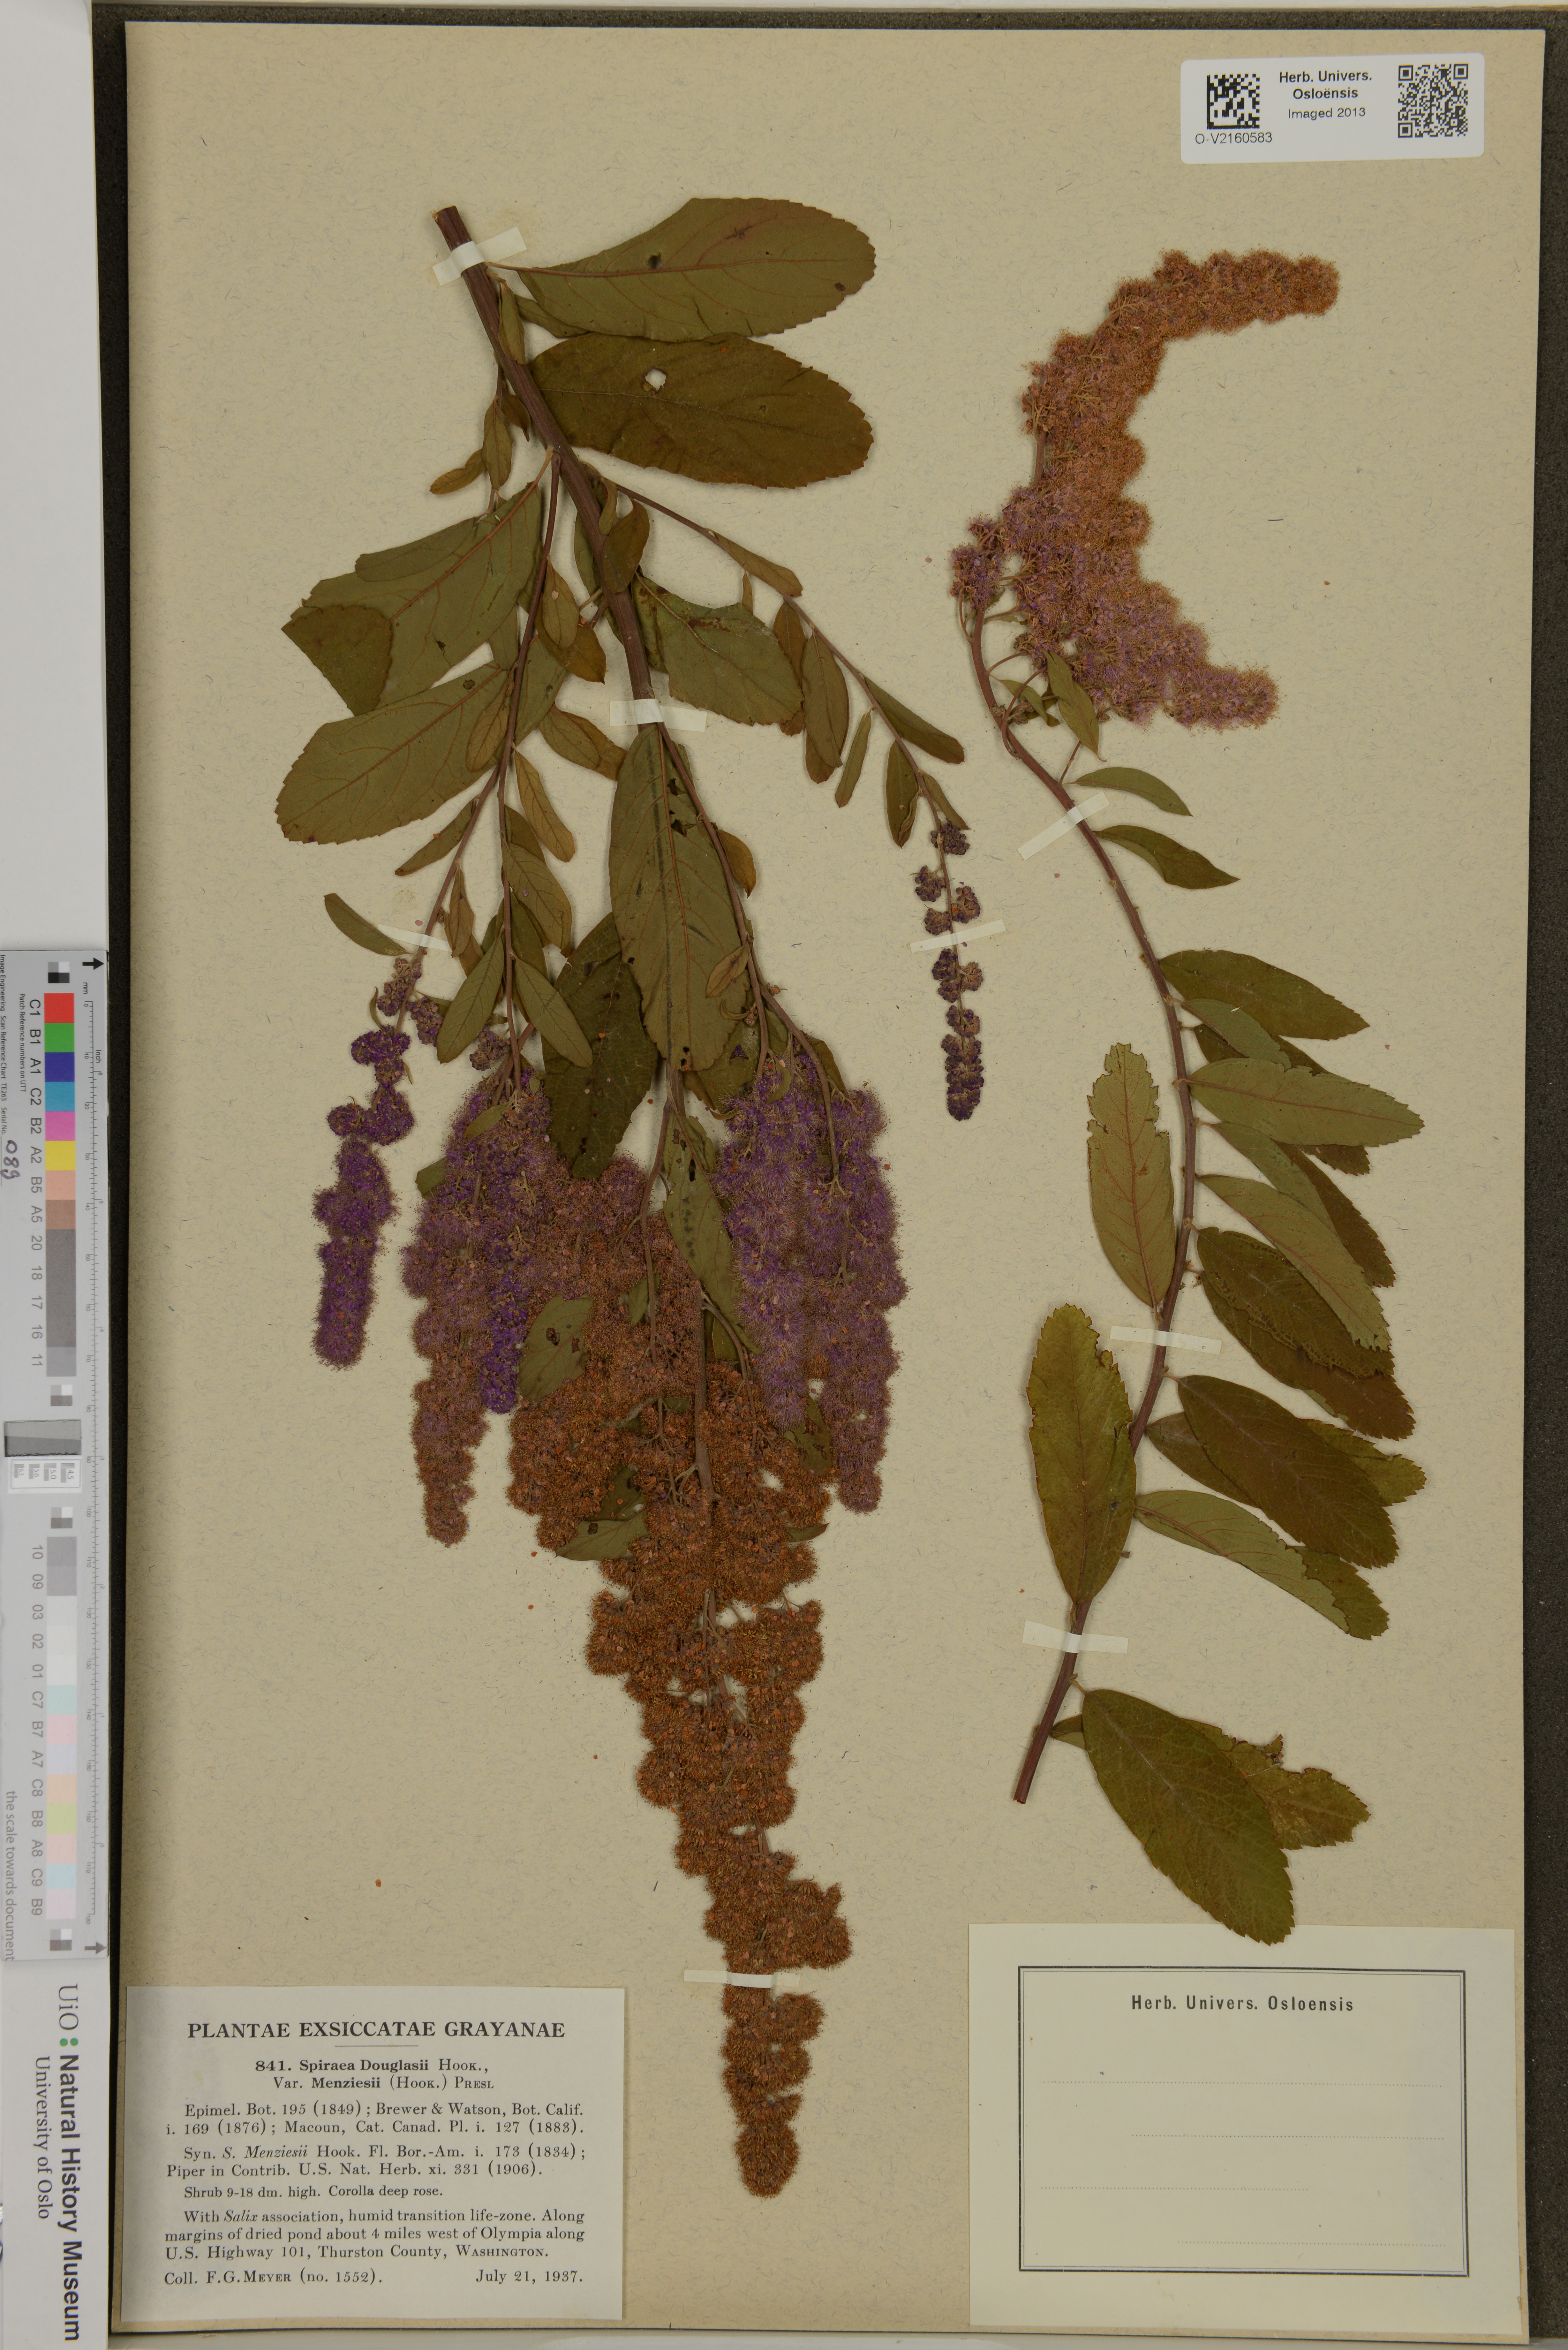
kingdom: Plantae
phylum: Tracheophyta
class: Magnoliopsida
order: Rosales
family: Rosaceae
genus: Spiraea
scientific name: Spiraea douglasii
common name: Steeplebush
